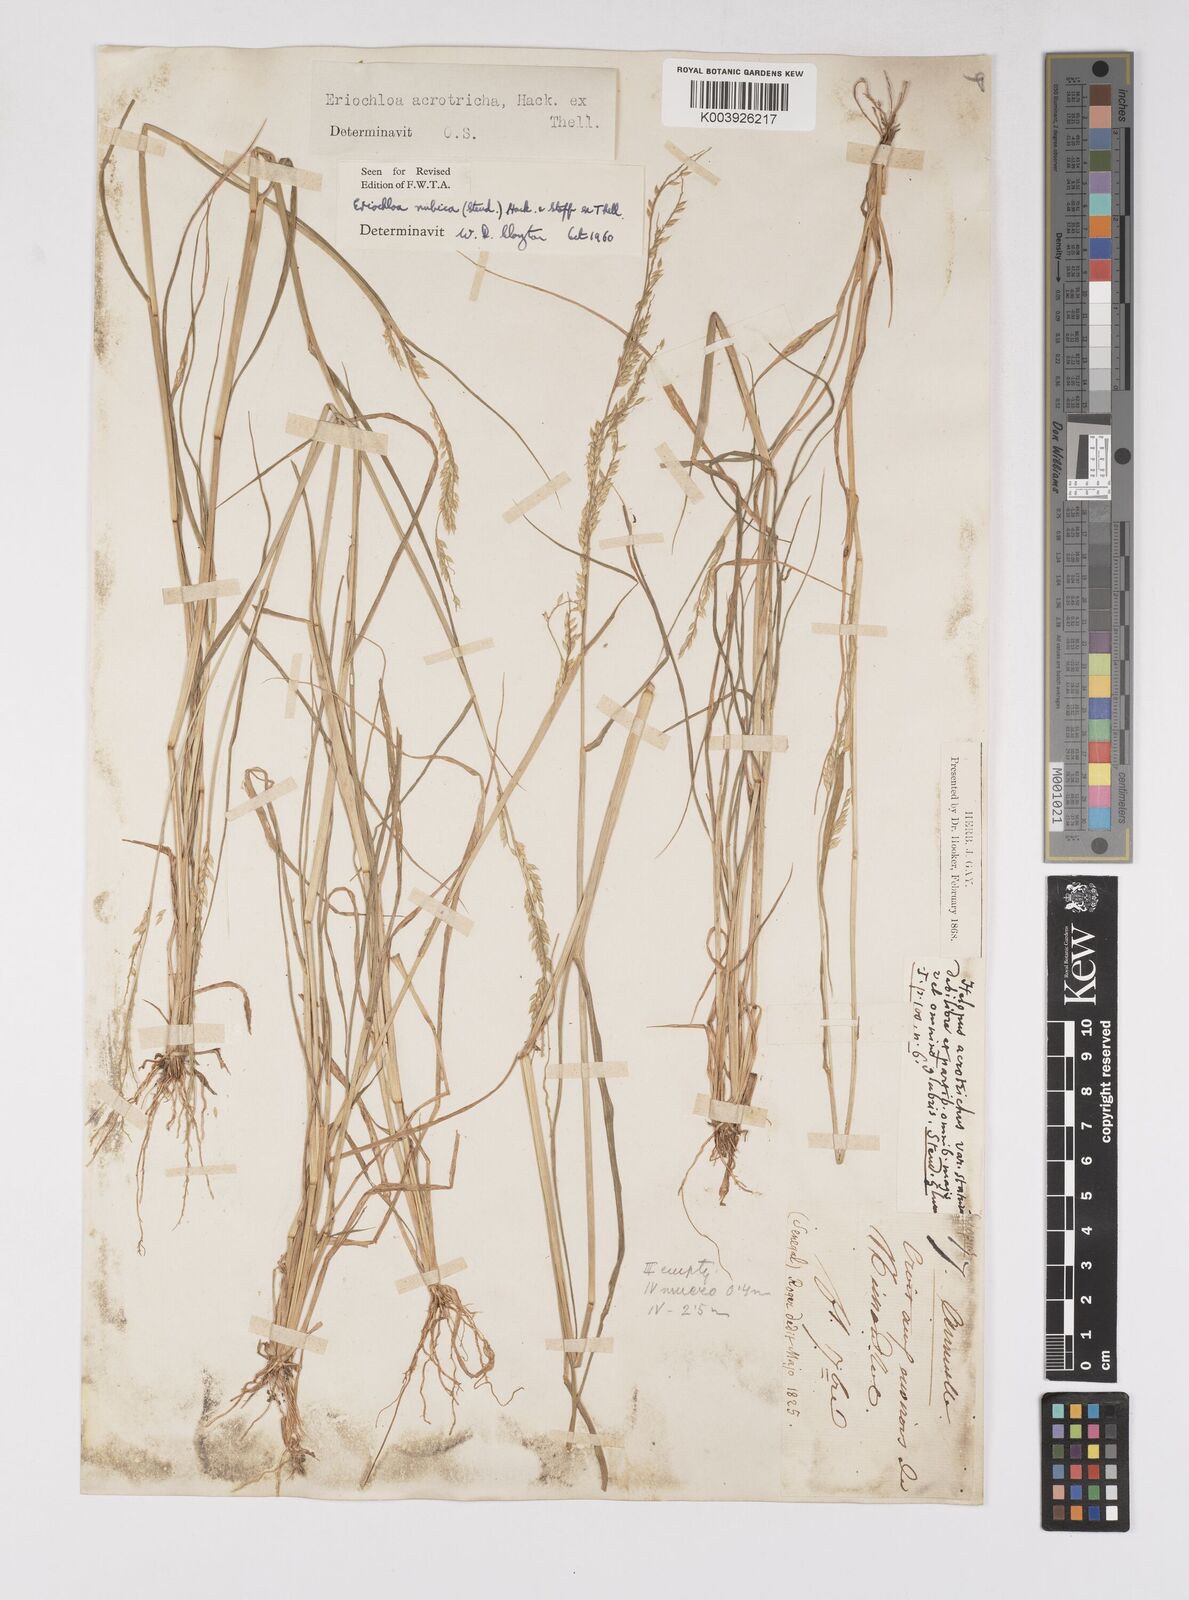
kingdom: Plantae
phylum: Tracheophyta
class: Liliopsida
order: Poales
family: Poaceae
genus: Eriochloa
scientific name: Eriochloa barbatus
